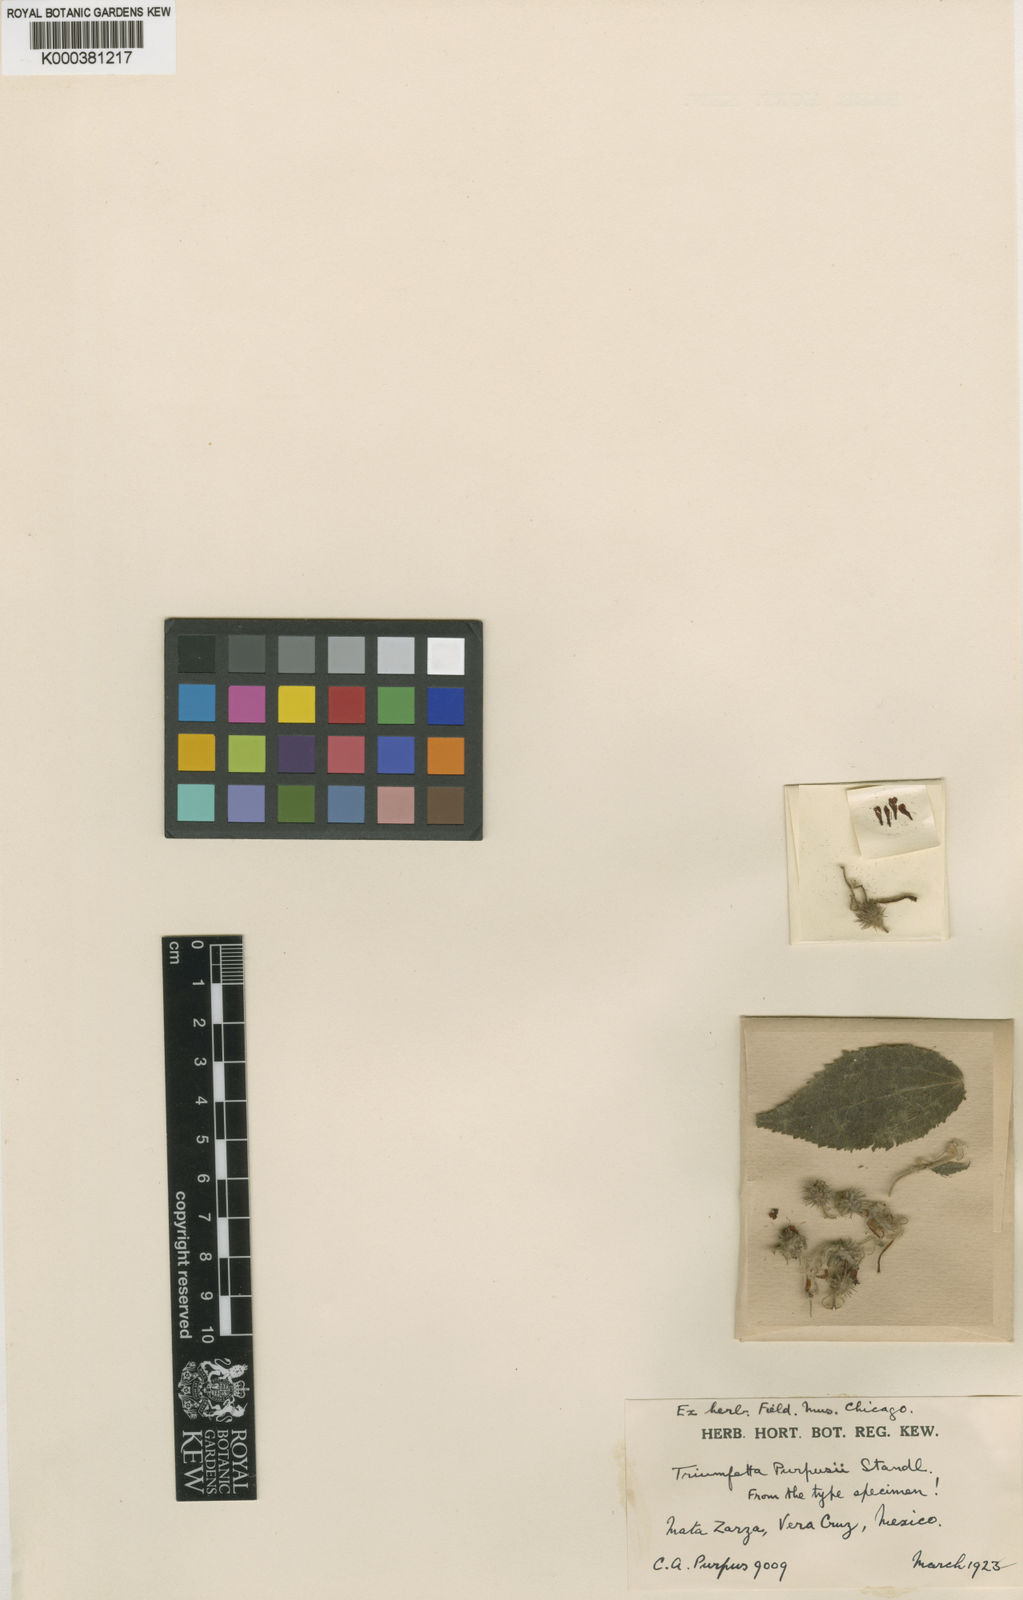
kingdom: Plantae
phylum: Tracheophyta
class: Magnoliopsida
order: Malvales
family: Malvaceae
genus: Triumfetta
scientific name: Triumfetta purpusii
